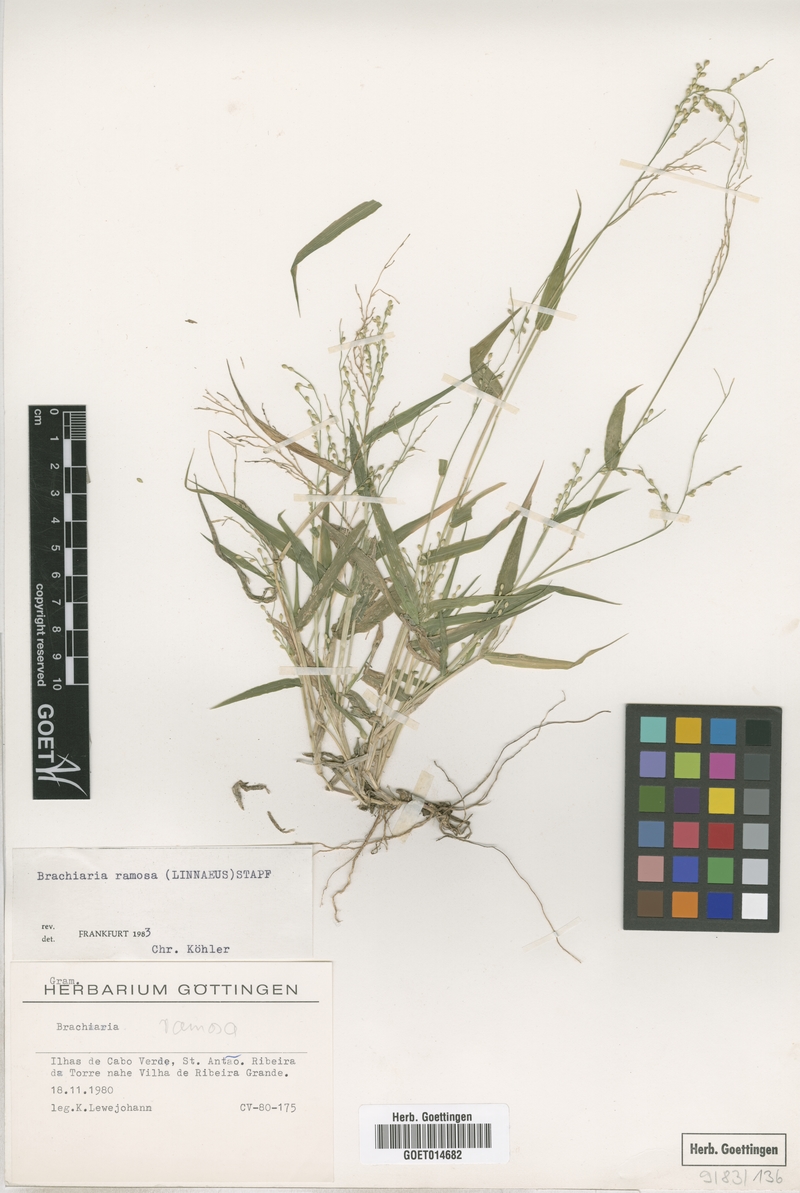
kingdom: Plantae
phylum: Tracheophyta
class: Liliopsida
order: Poales
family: Poaceae
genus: Urochloa
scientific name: Urochloa ramosa
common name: Browntop millet
